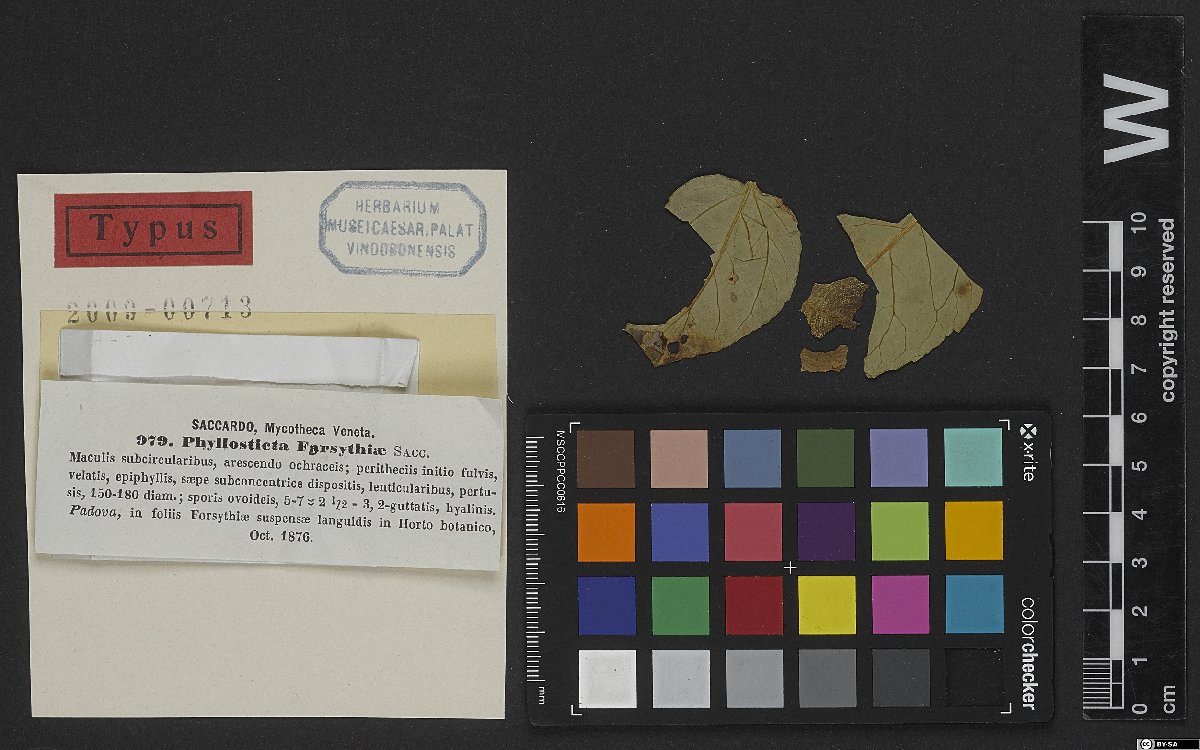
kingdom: Fungi
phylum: Ascomycota
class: Dothideomycetes
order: Pleosporales
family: Didymellaceae
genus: Boeremia
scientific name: Boeremia exigua
